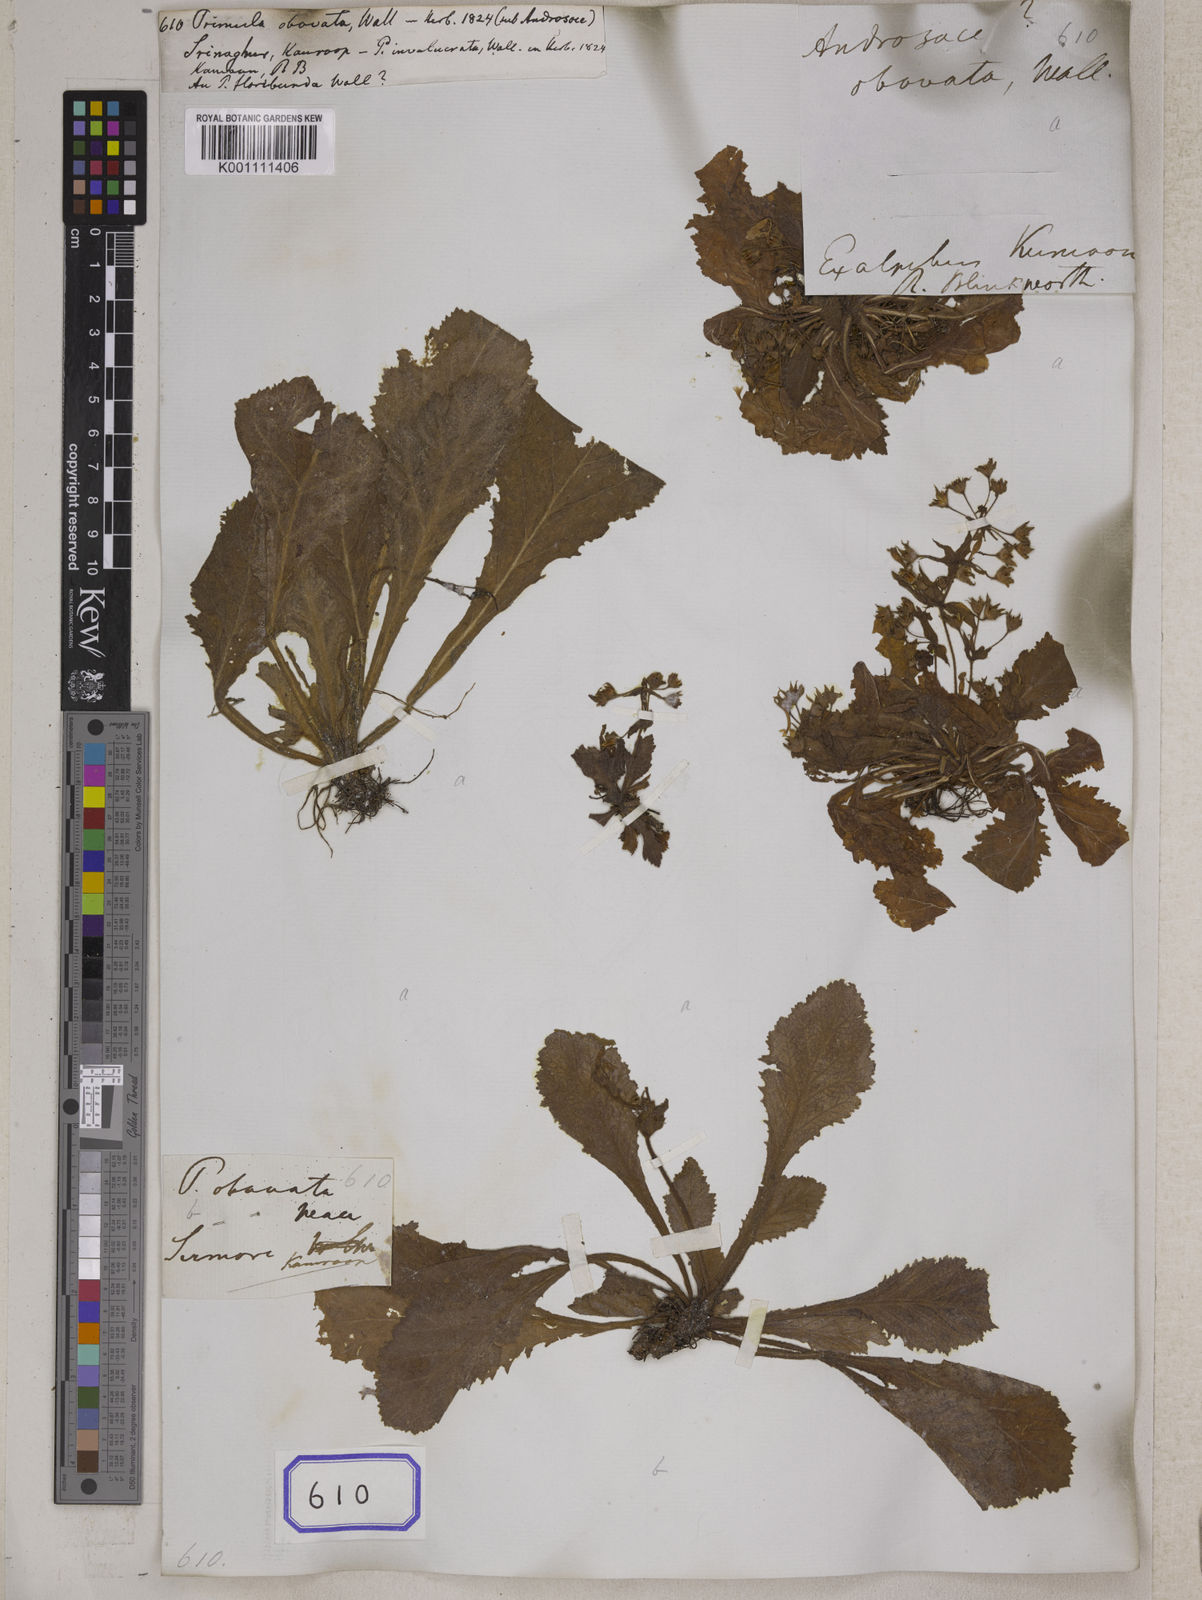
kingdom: Plantae
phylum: Tracheophyta
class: Magnoliopsida
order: Ericales
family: Primulaceae
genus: Evotrochis
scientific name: Evotrochis floribunda
